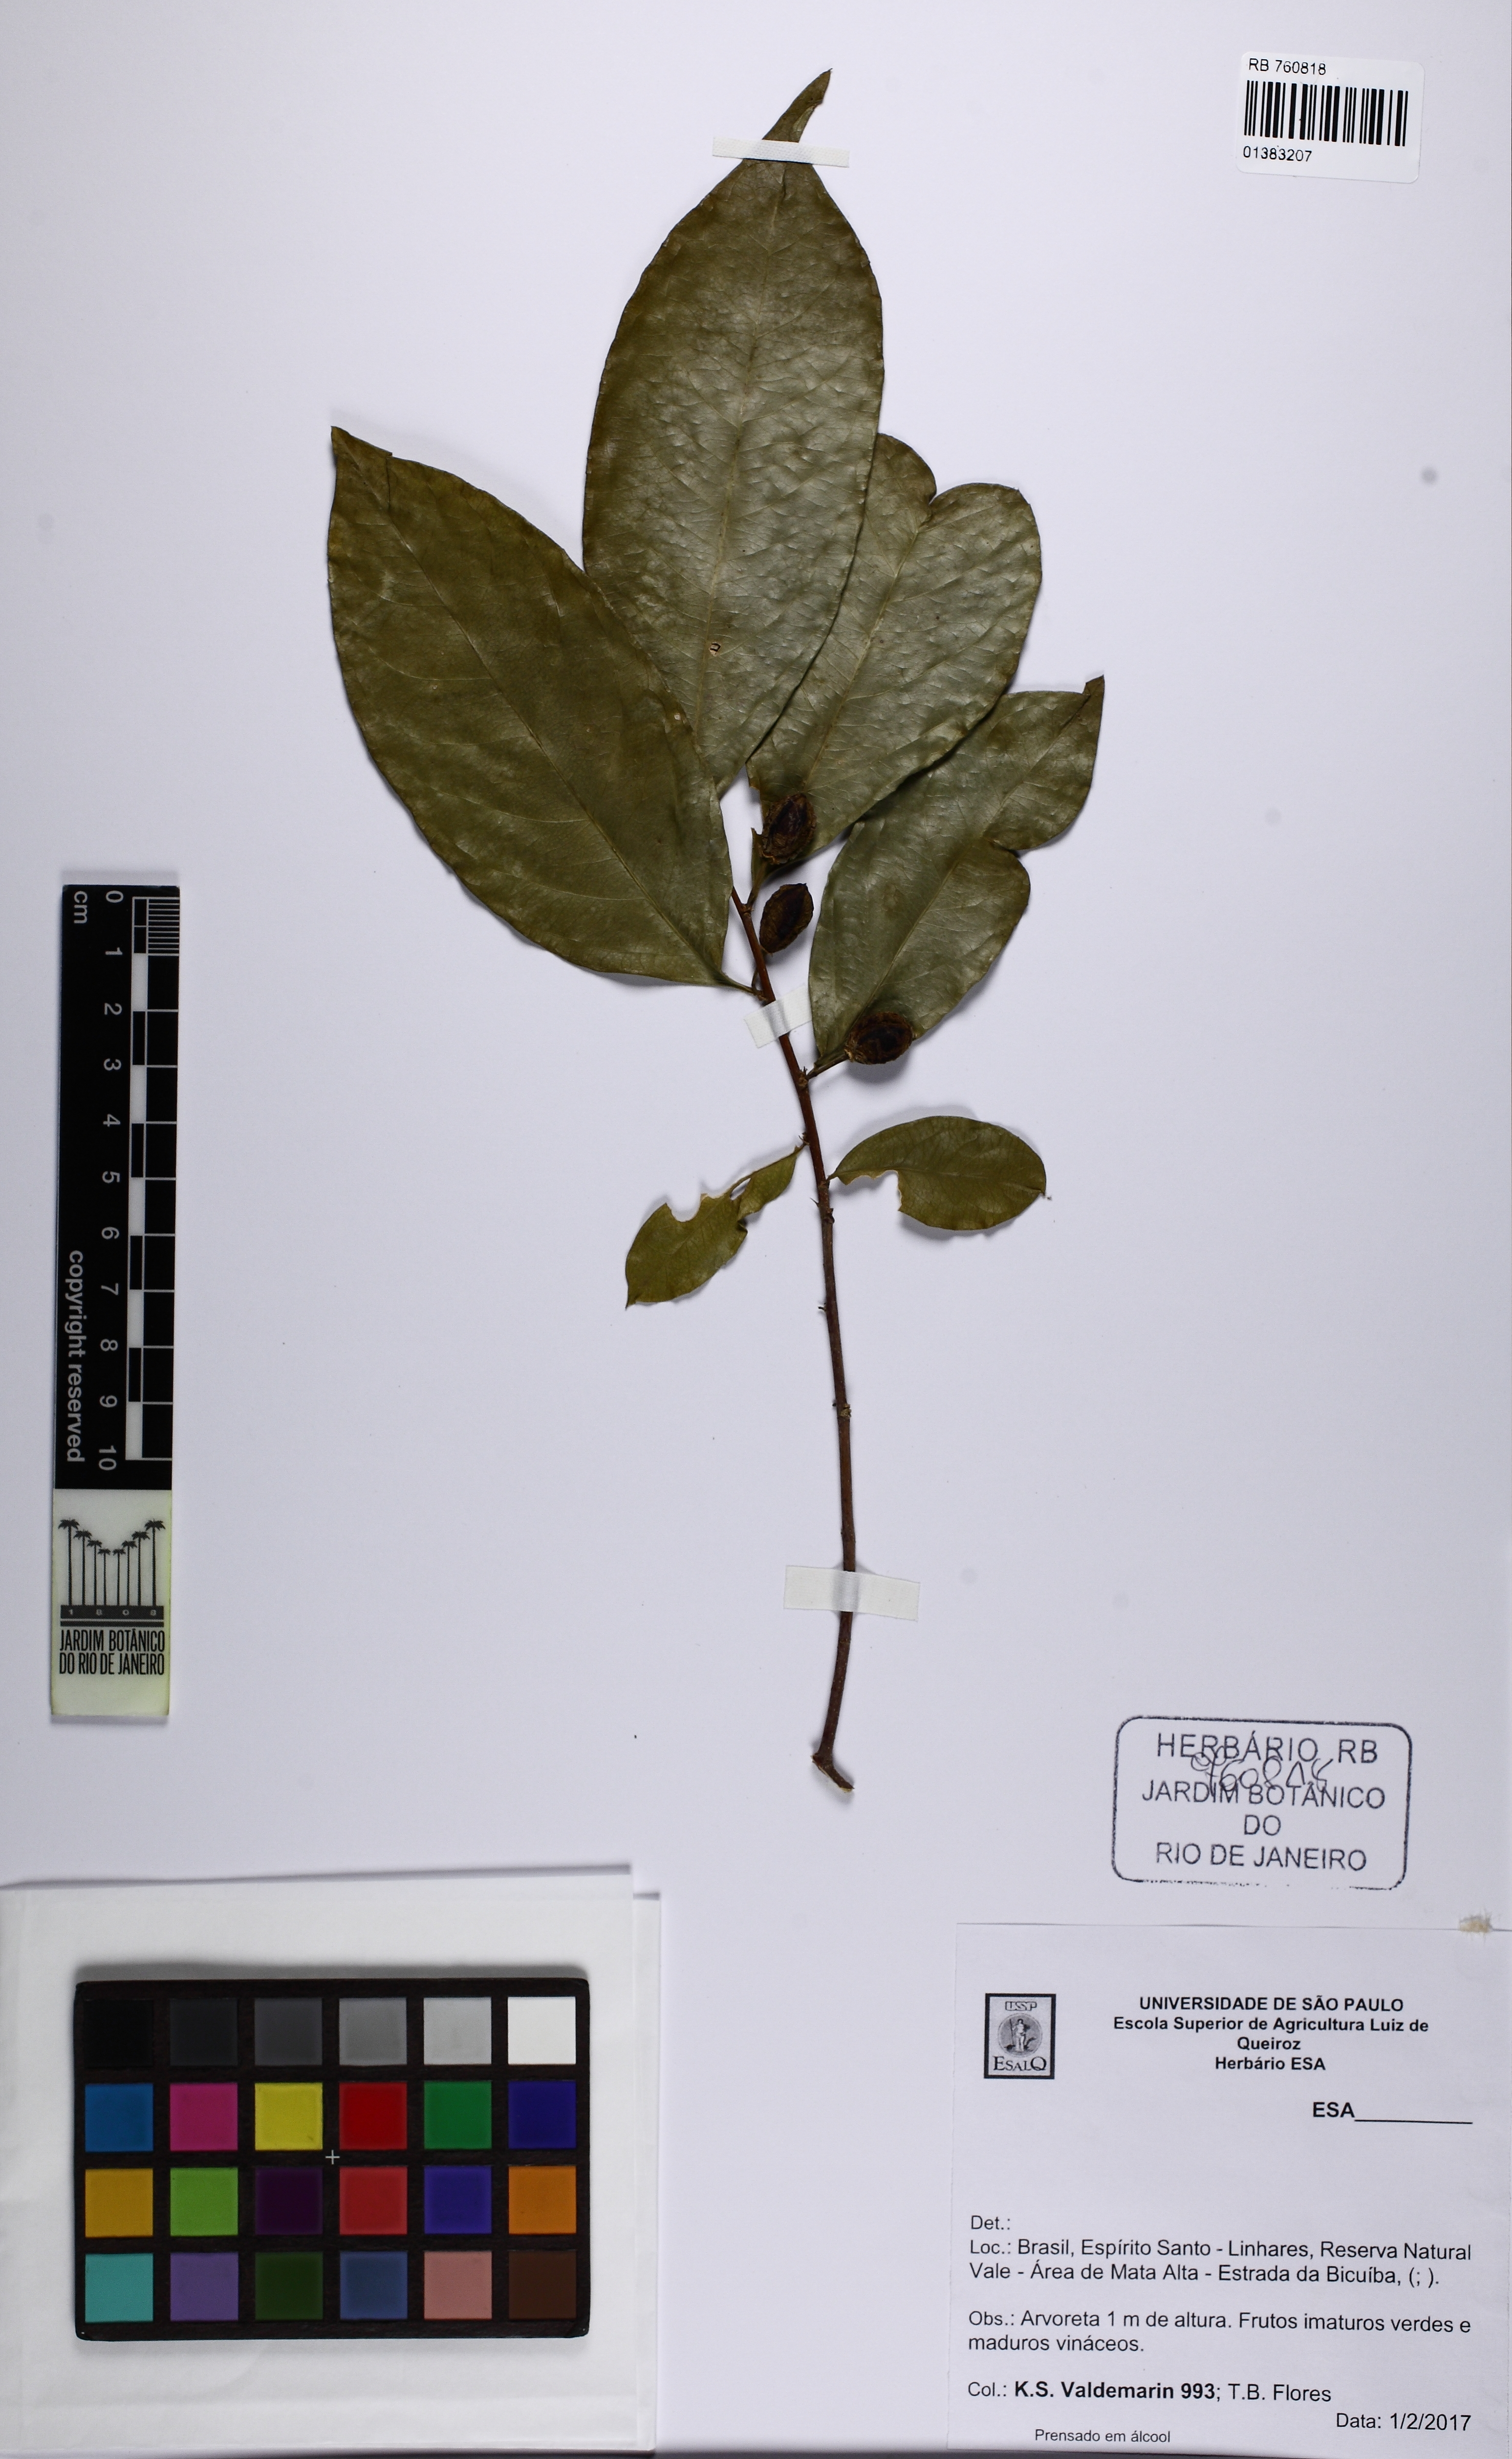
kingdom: Plantae
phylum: Tracheophyta
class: Magnoliopsida
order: Sapindales
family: Rutaceae
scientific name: Rutaceae
